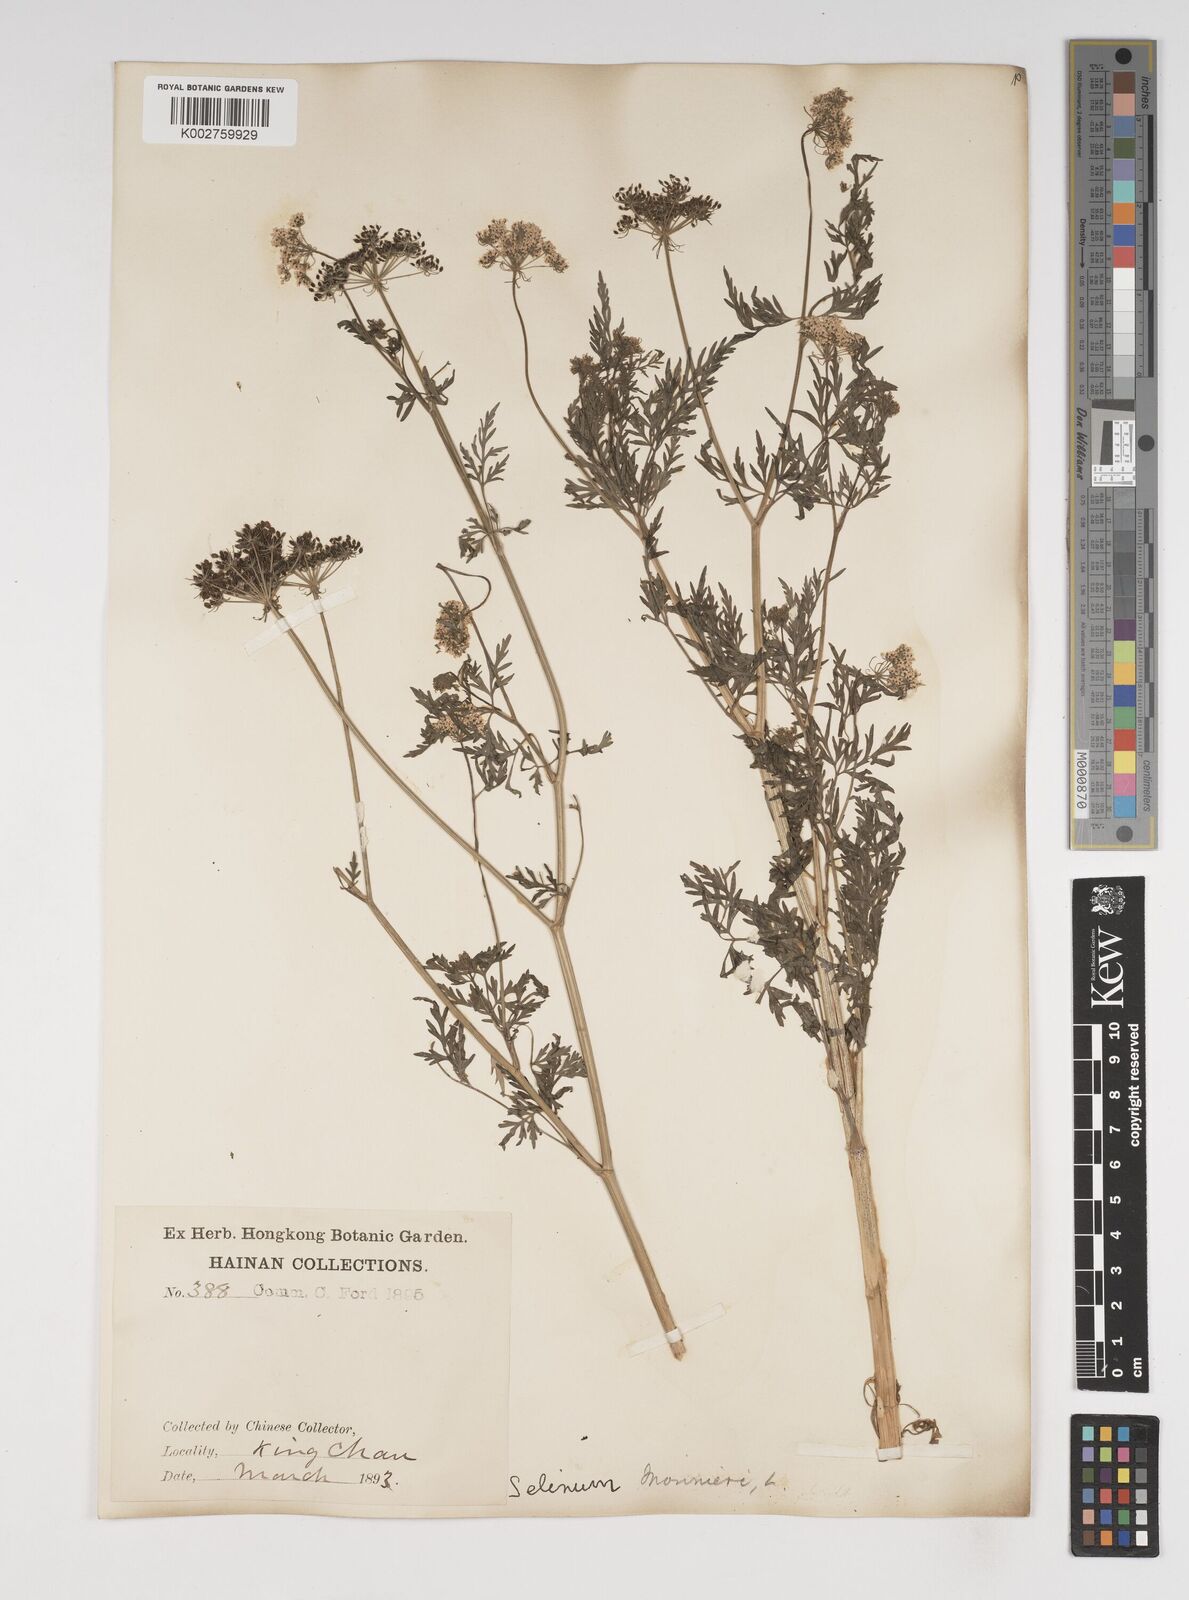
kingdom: Plantae
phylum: Tracheophyta
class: Magnoliopsida
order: Apiales
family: Apiaceae
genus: Cnidium
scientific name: Cnidium monnieri
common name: Monnier's snowparsley
